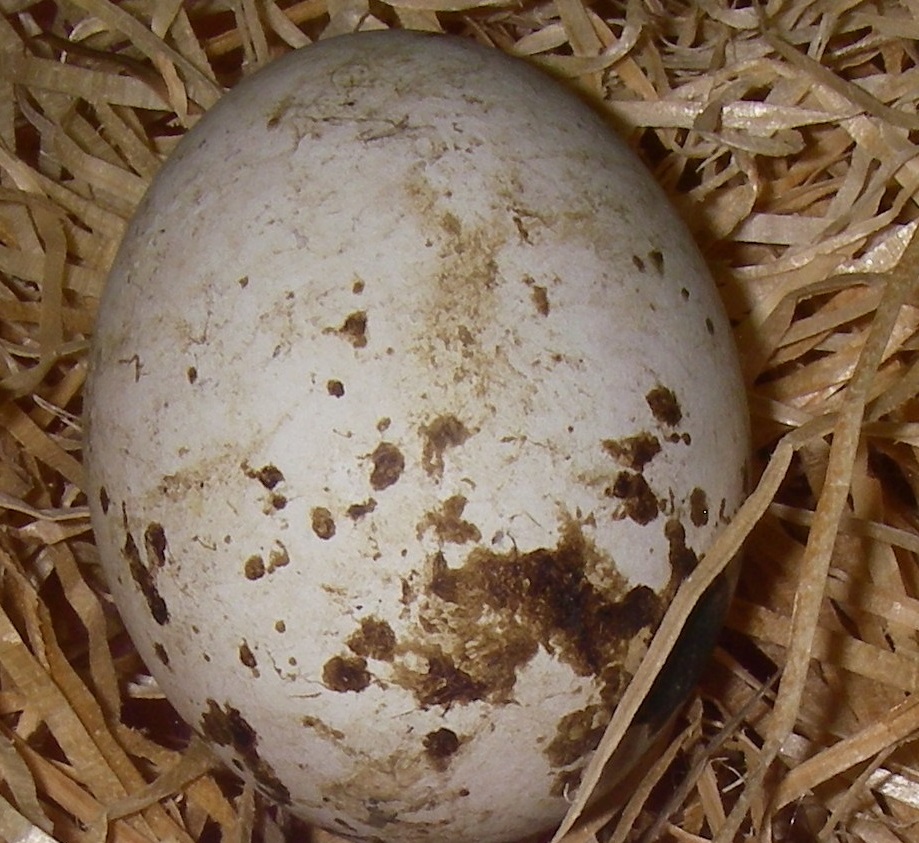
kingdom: Animalia
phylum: Chordata
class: Aves
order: Accipitriformes
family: Accipitridae
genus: Buteo
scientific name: Buteo buteo
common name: Common buzzard
